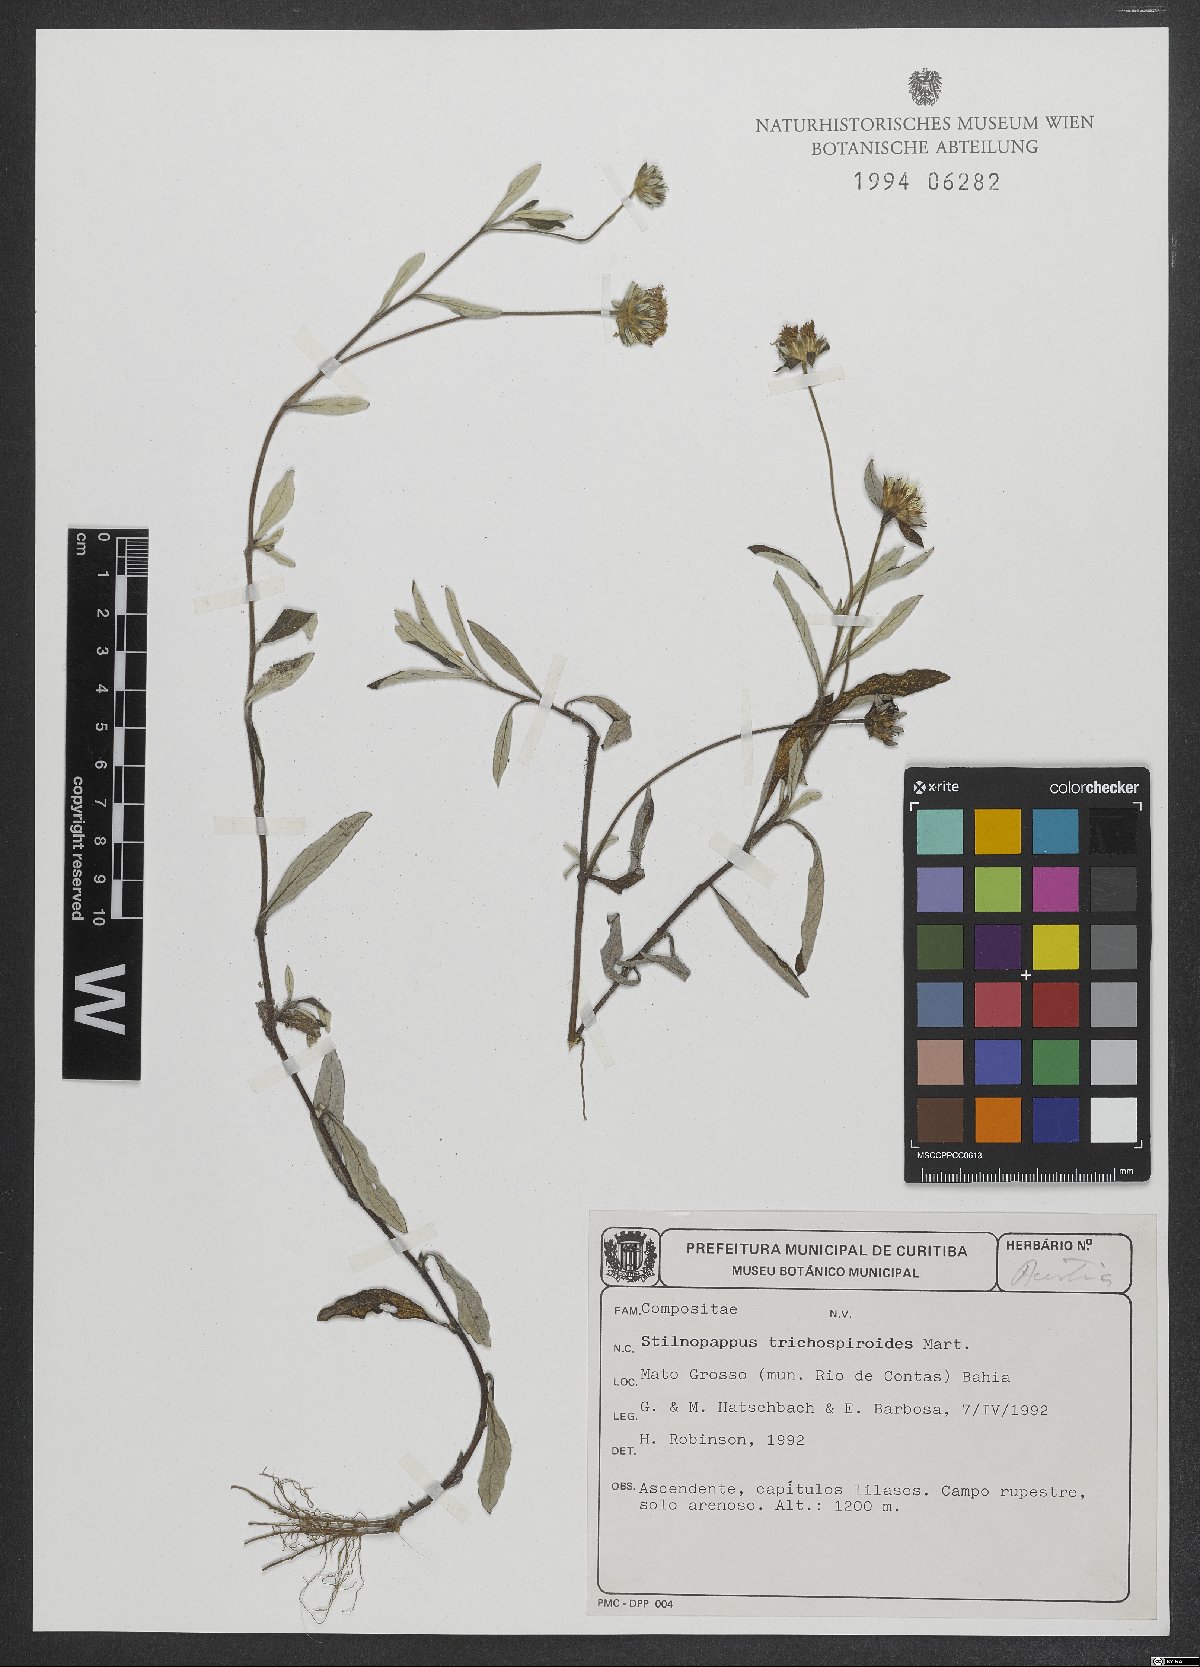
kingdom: Plantae
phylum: Tracheophyta
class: Magnoliopsida
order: Asterales
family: Asteraceae
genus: Stilpnopappus
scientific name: Stilpnopappus trichospiroides
